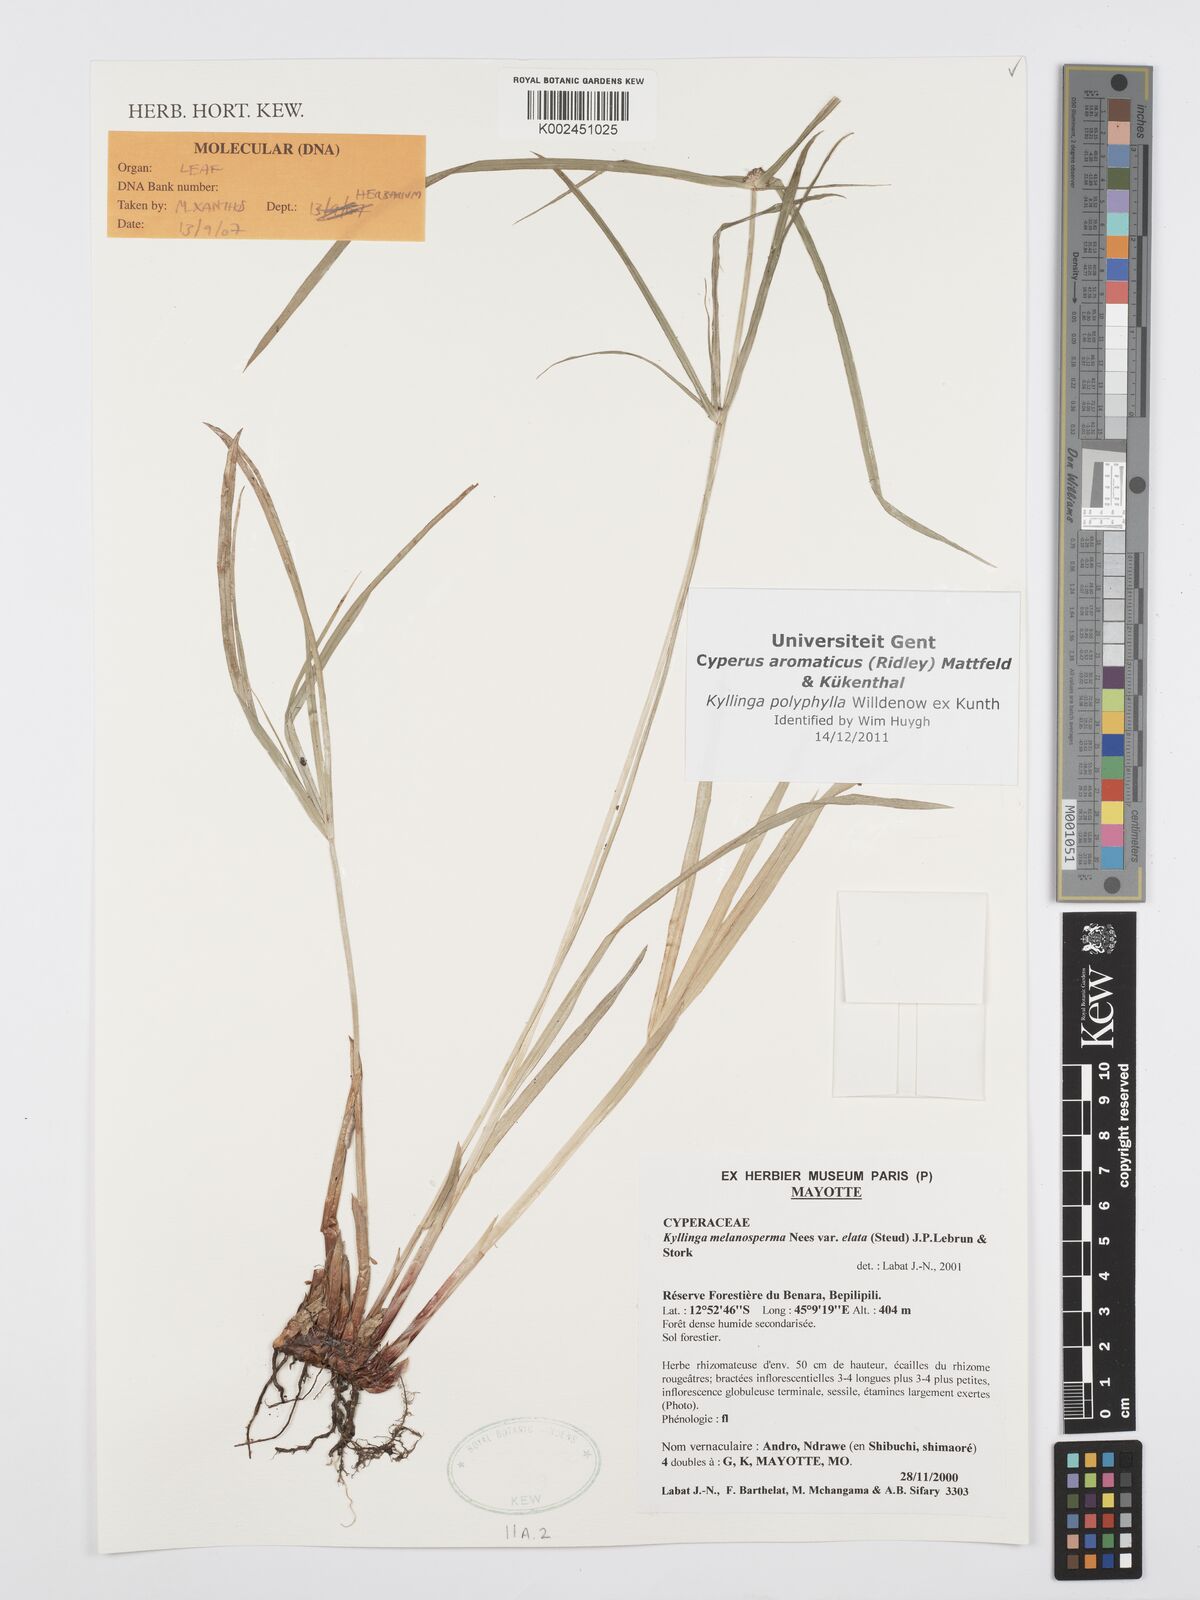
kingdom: Plantae
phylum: Tracheophyta
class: Liliopsida
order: Poales
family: Cyperaceae
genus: Cyperus
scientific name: Cyperus bulbosus
